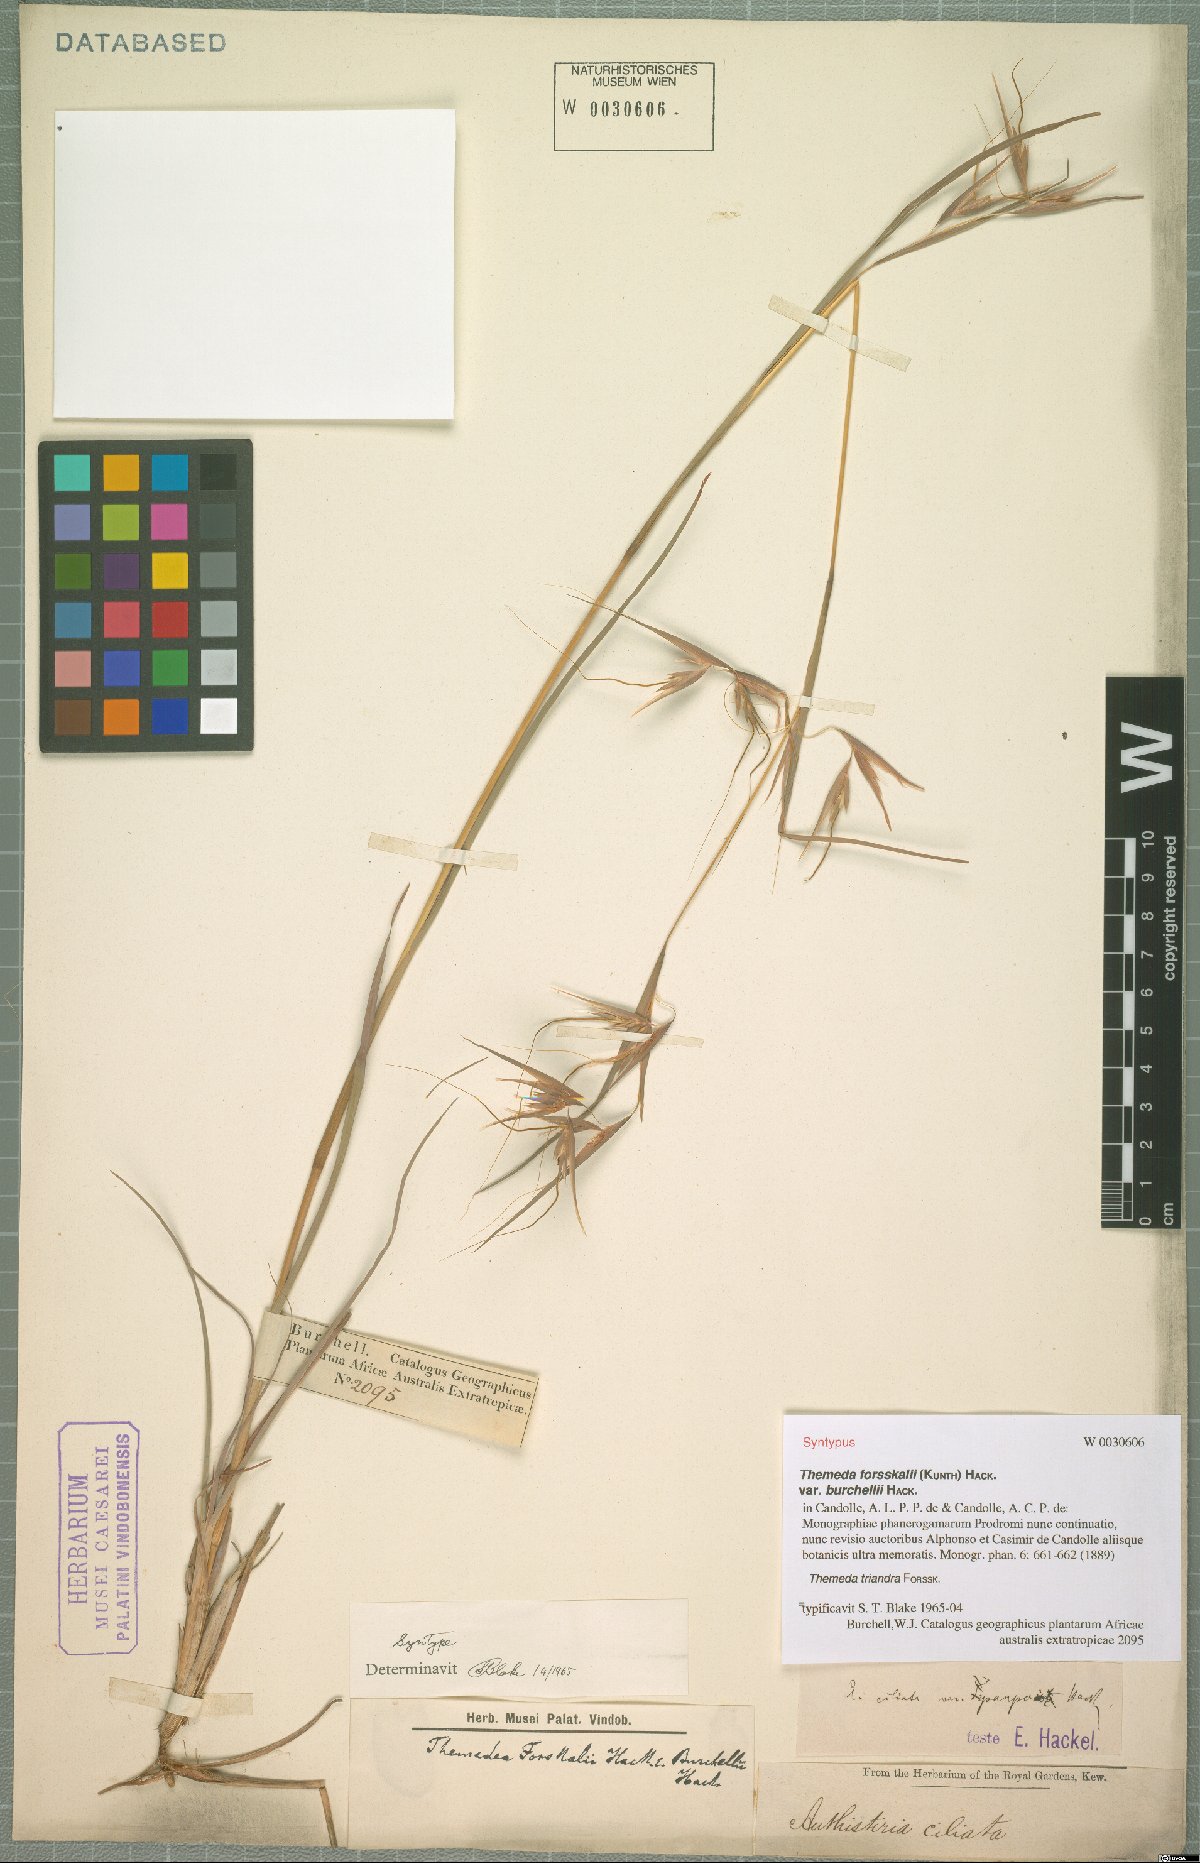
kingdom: Plantae
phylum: Tracheophyta
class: Liliopsida
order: Poales
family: Poaceae
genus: Themeda
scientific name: Themeda triandra
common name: Kangaroo grass
